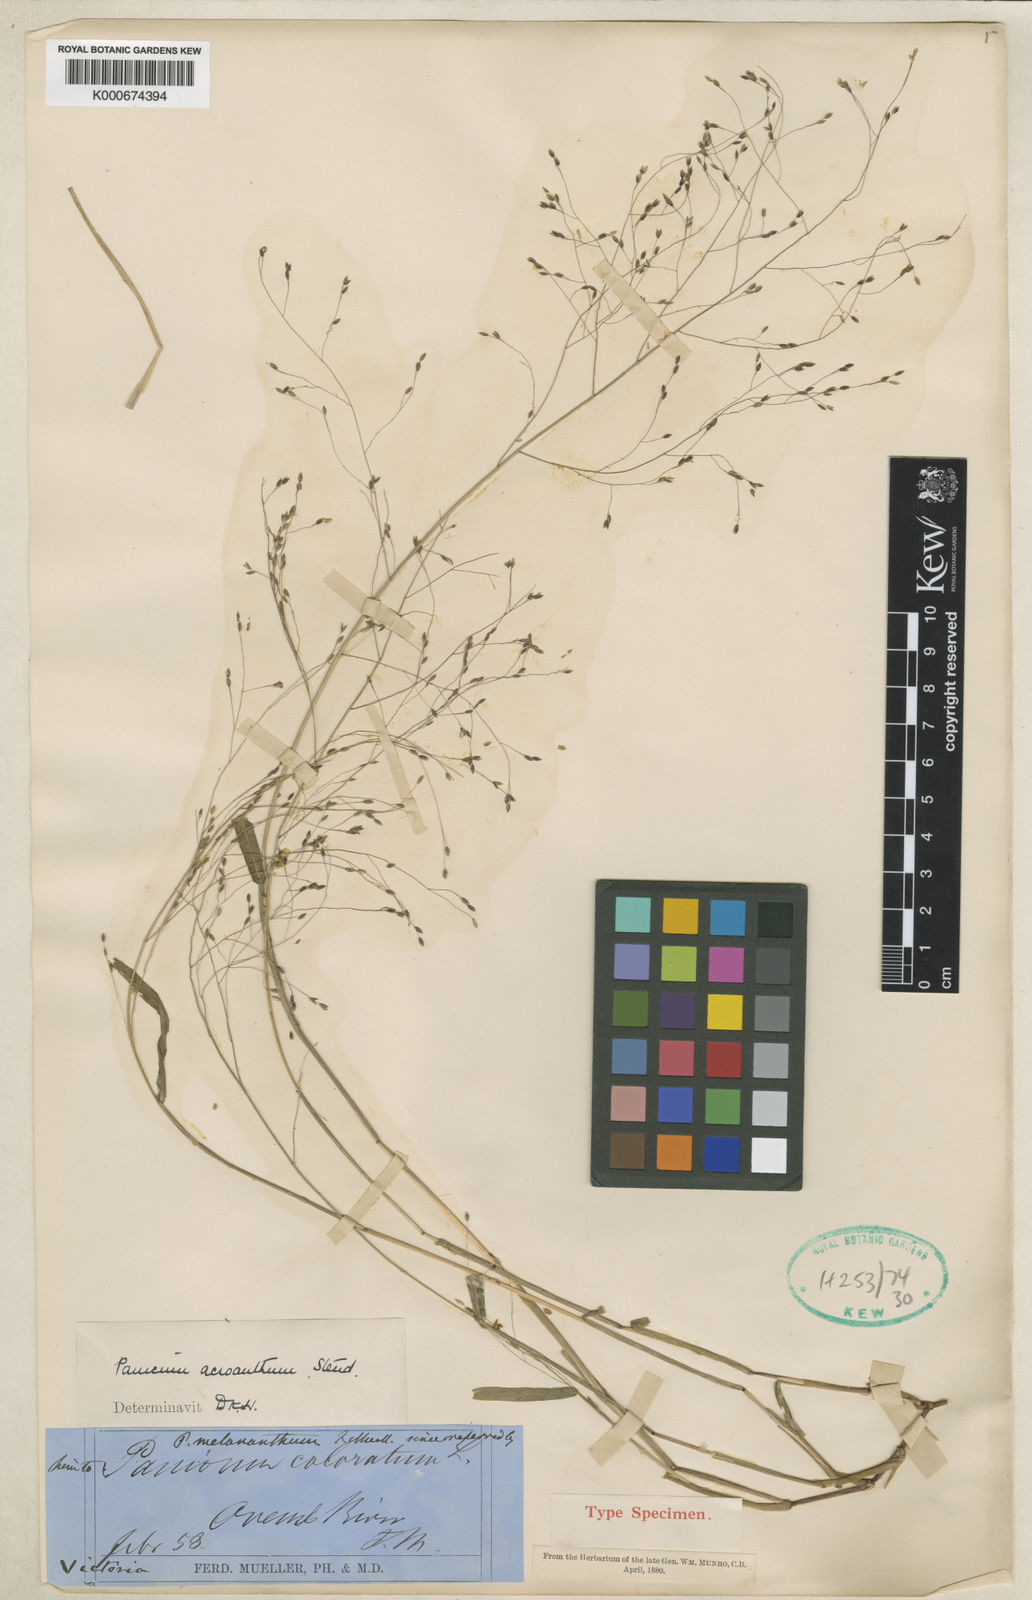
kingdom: Plantae
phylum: Tracheophyta
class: Liliopsida
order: Poales
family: Poaceae
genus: Panicum
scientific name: Panicum bisulcatum
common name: Japanese panicgrass
